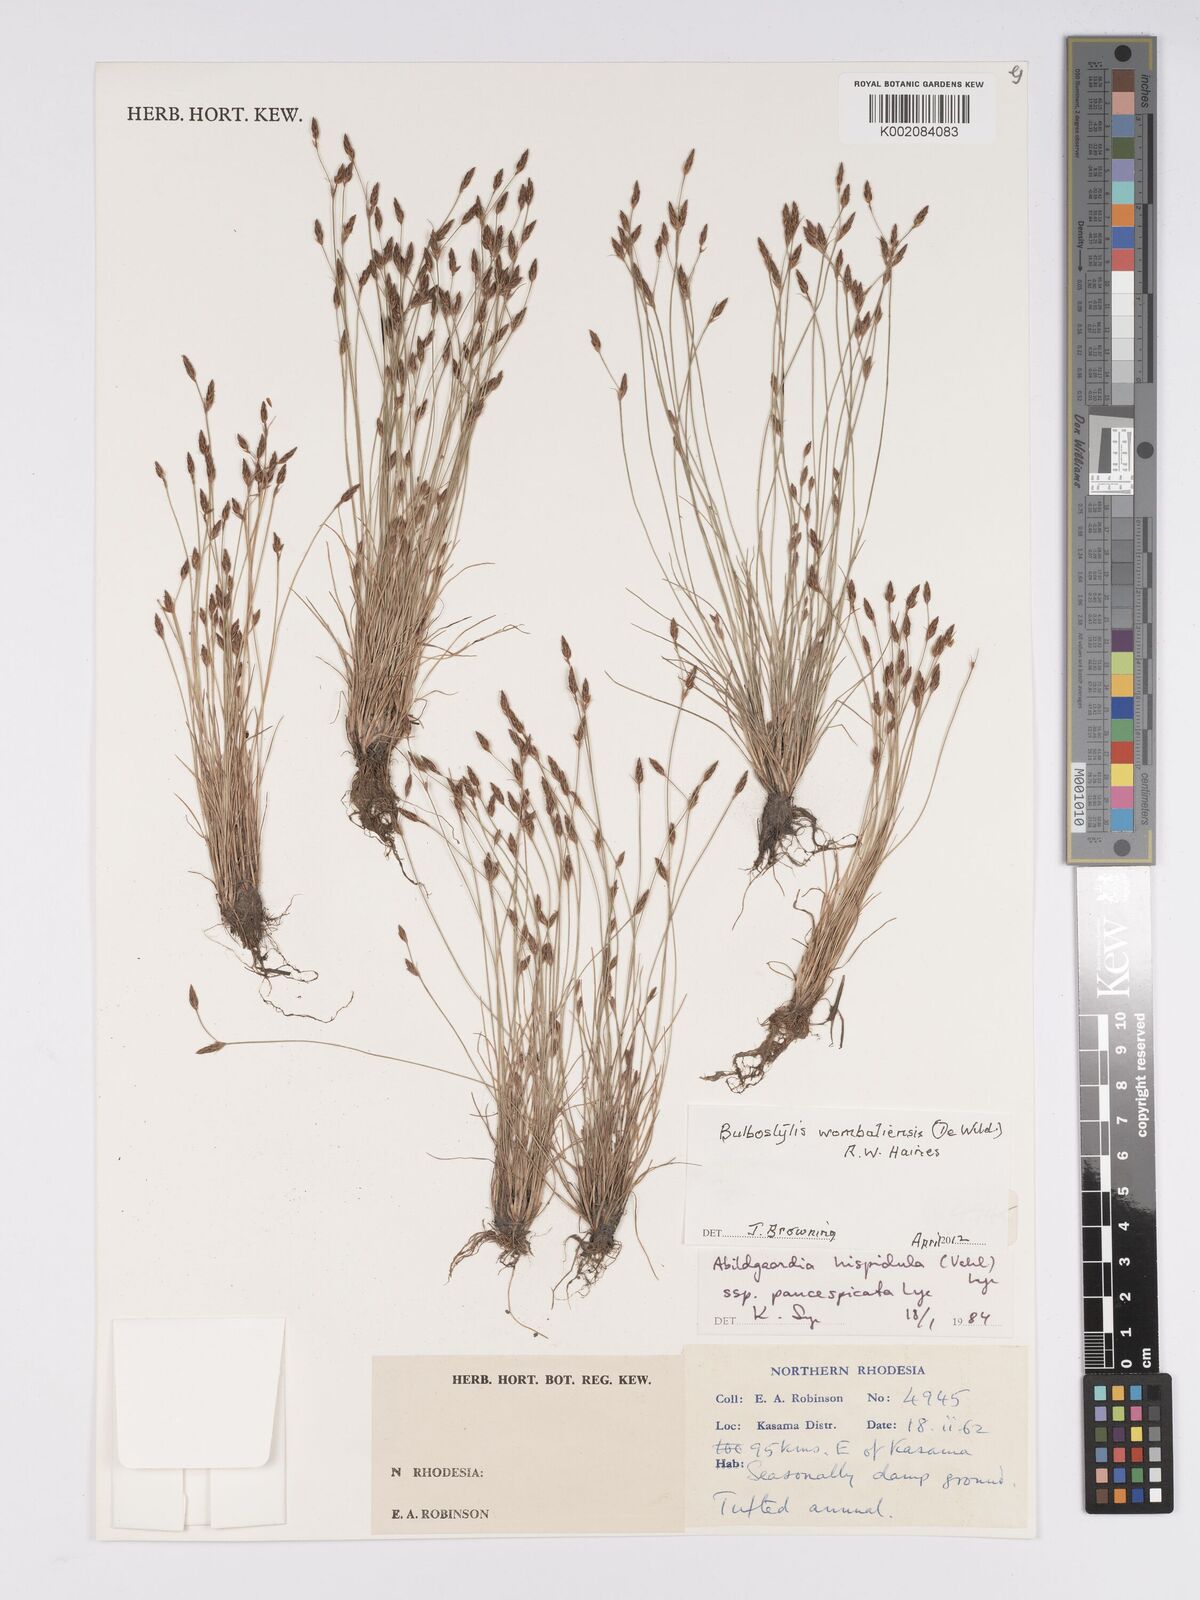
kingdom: Plantae
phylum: Tracheophyta
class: Liliopsida
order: Poales
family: Cyperaceae
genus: Bulbostylis
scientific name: Bulbostylis wombaliensis
